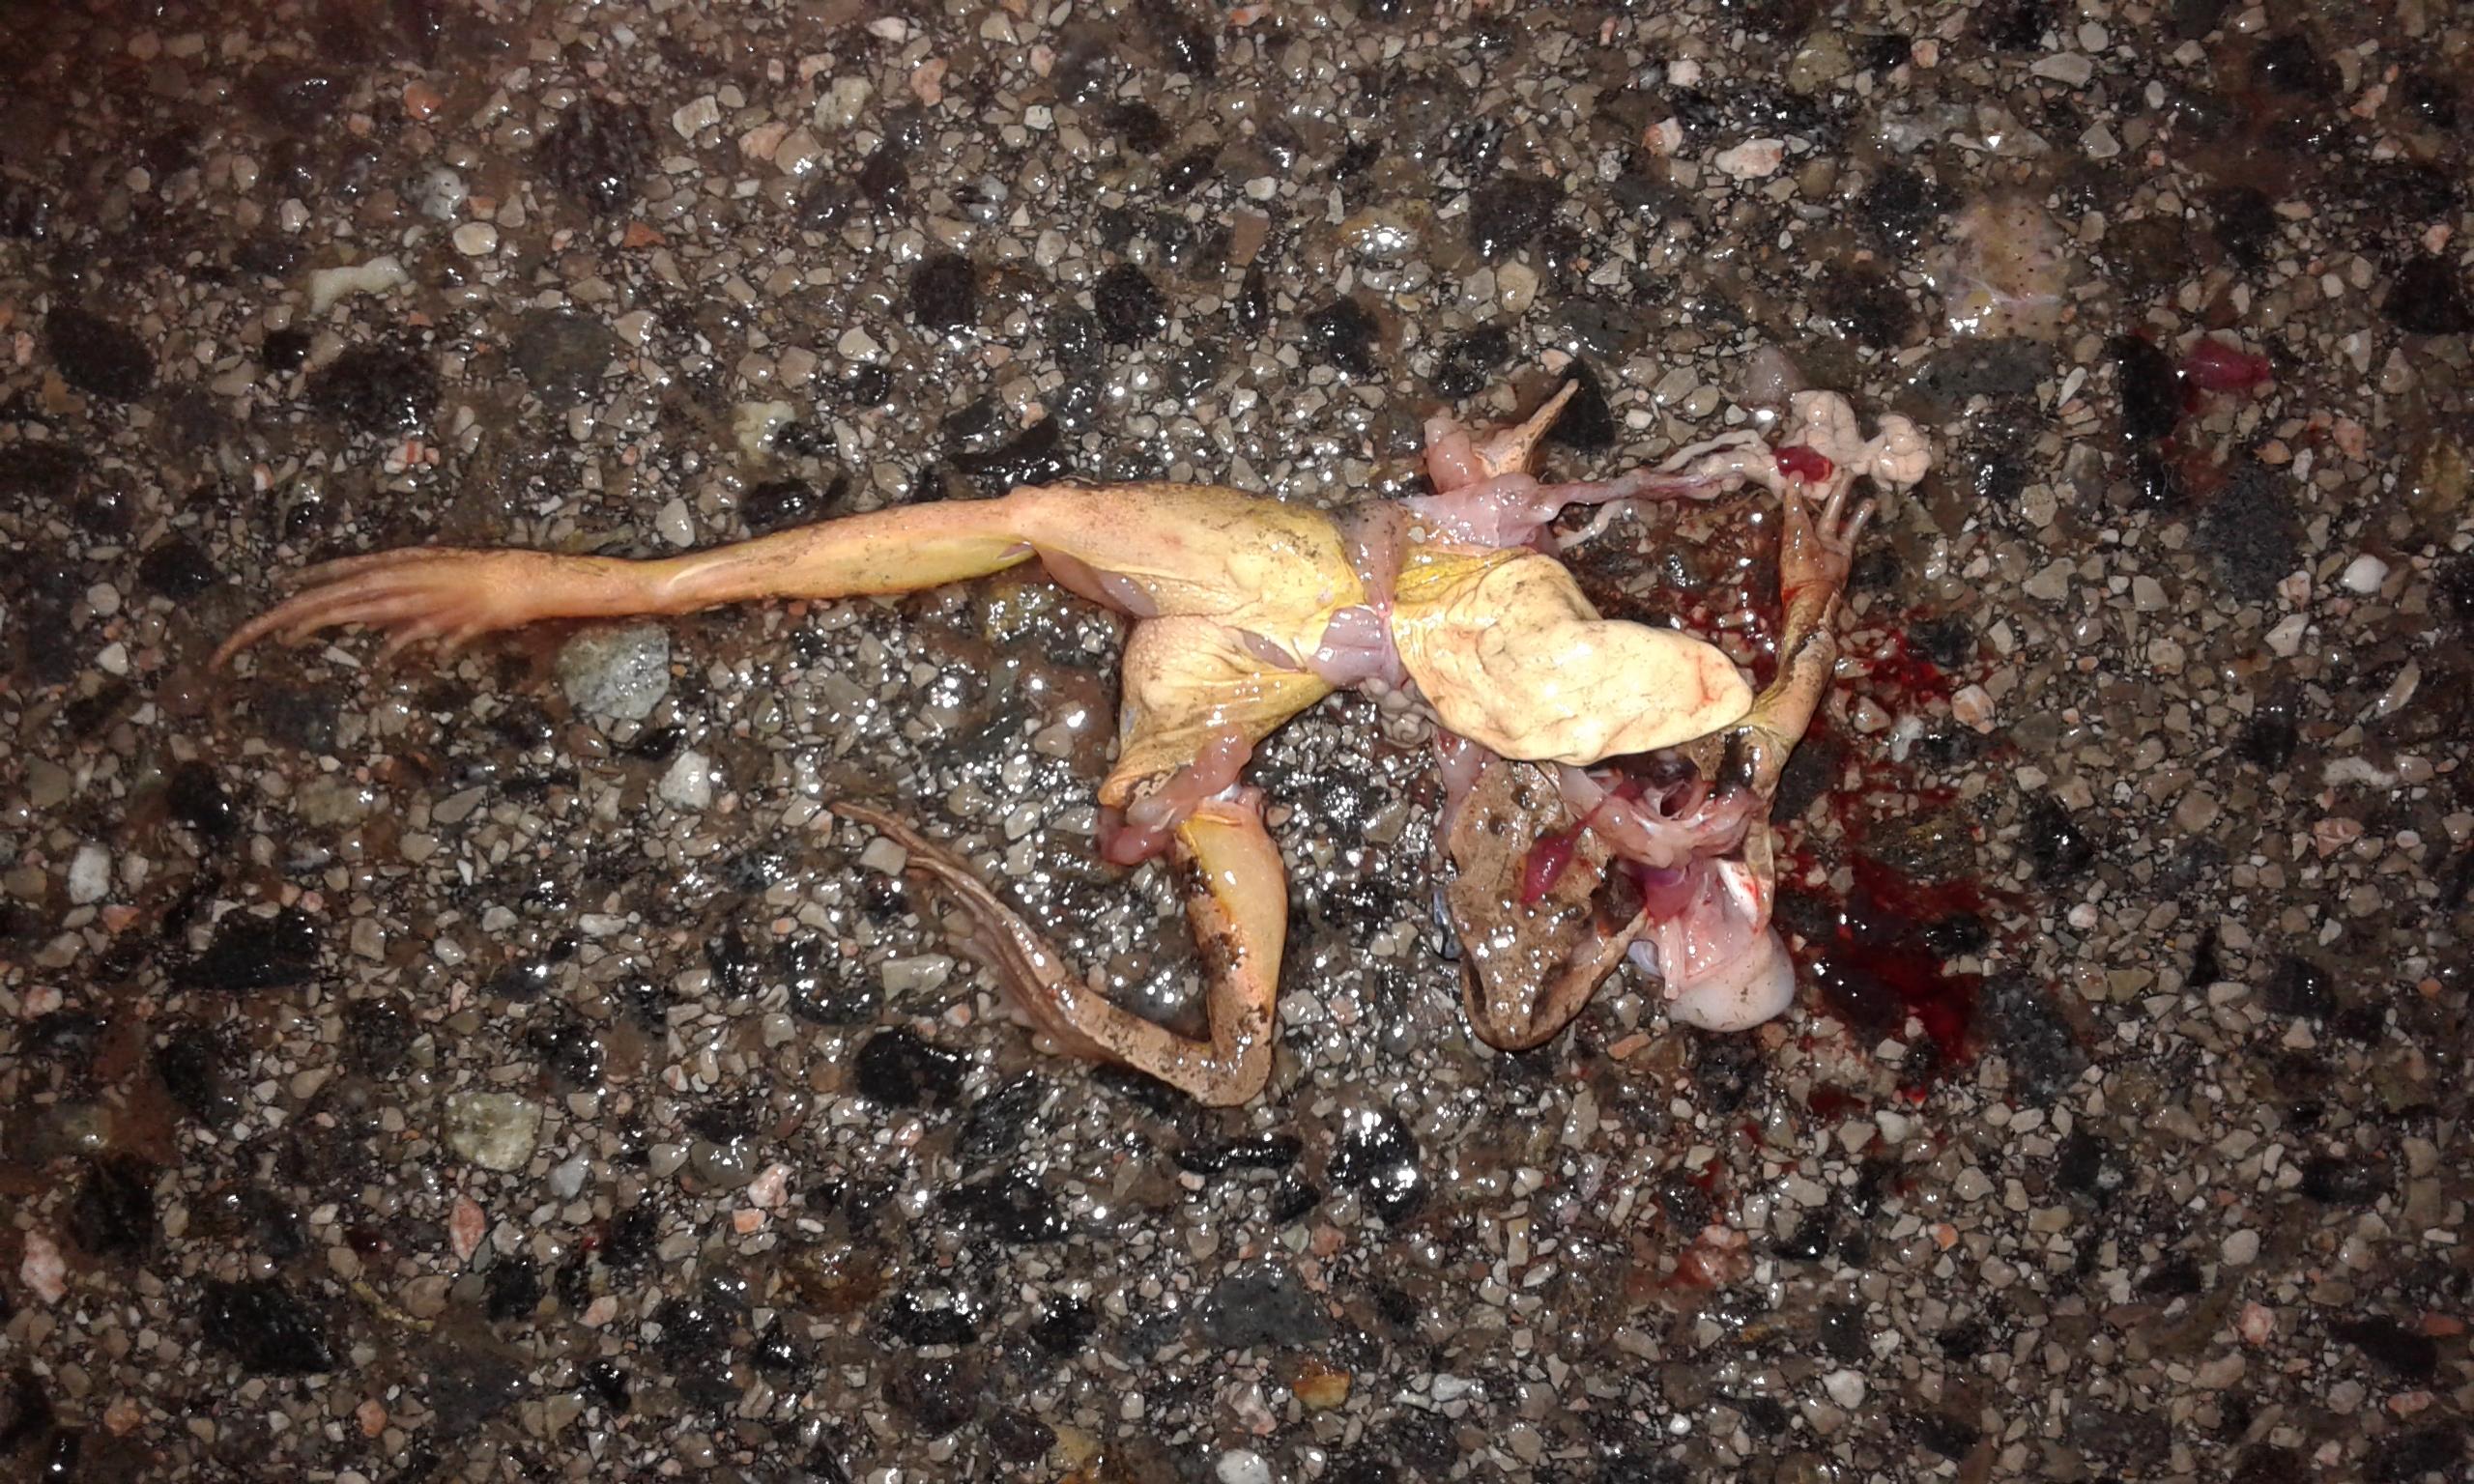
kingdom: Animalia
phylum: Chordata
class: Amphibia
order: Anura
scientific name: Anura
